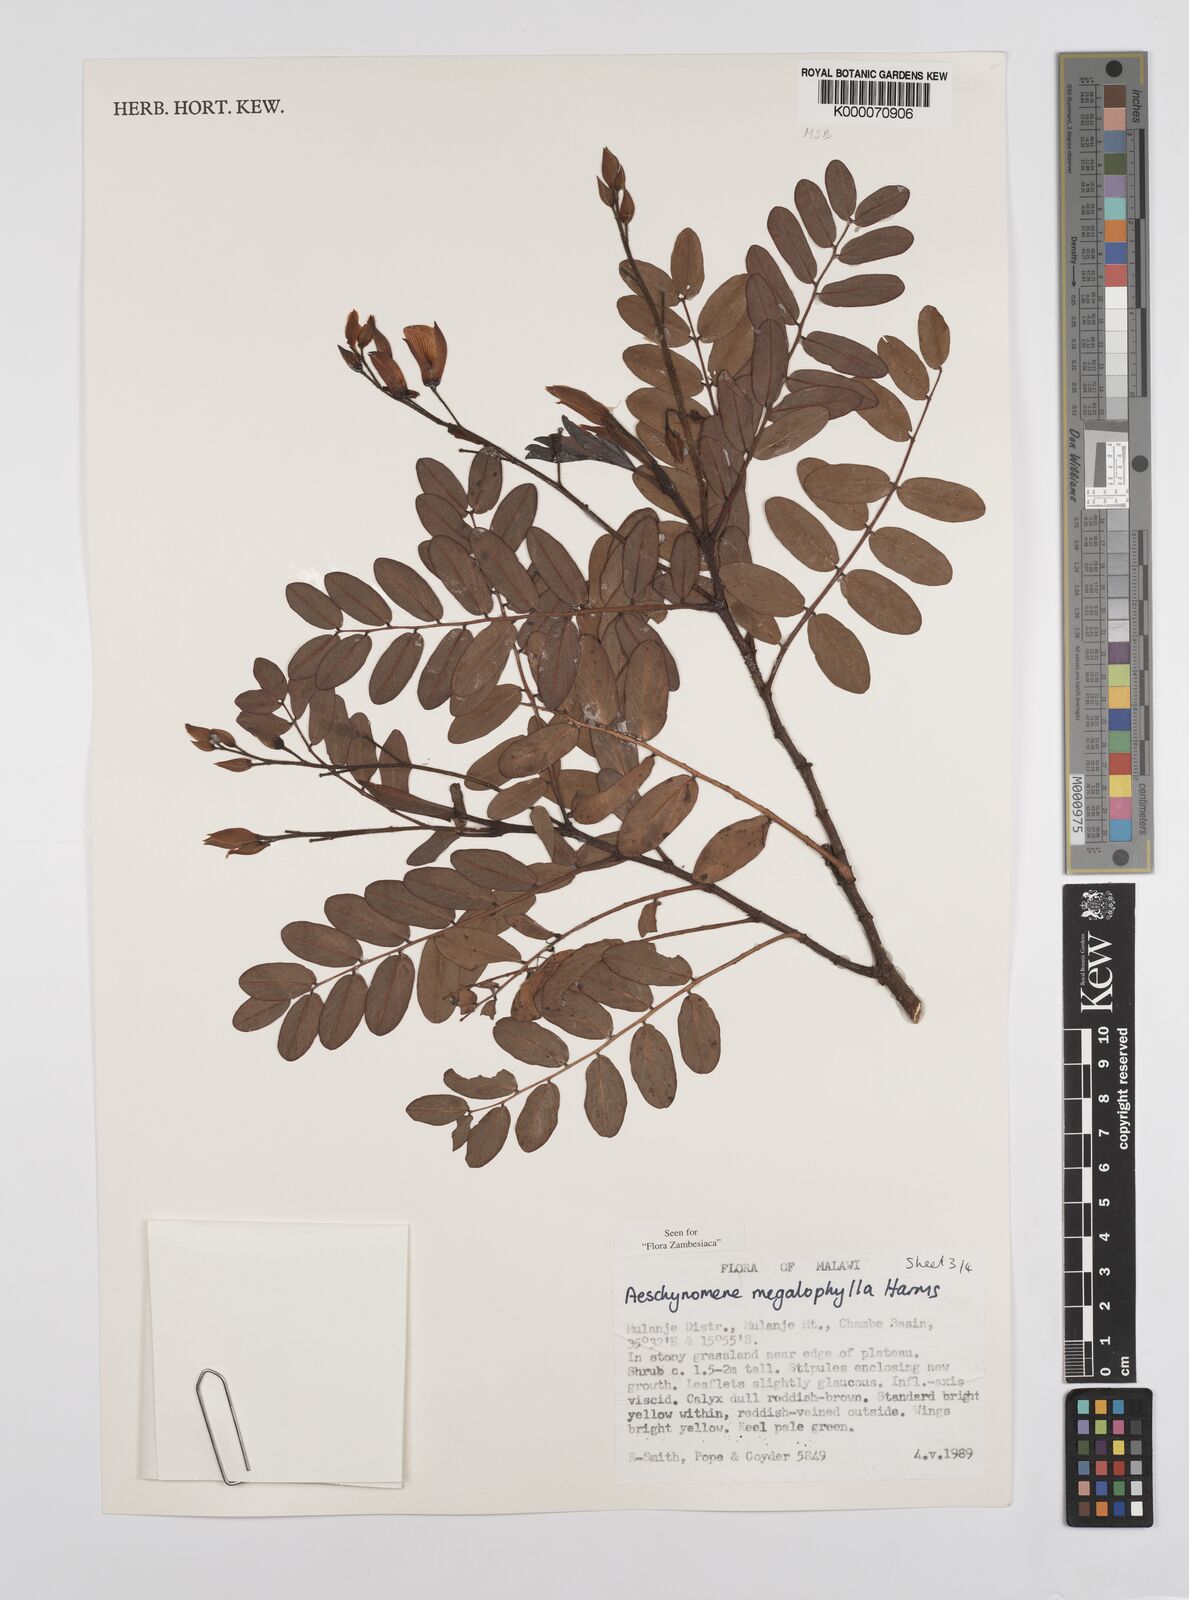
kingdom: Plantae
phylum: Tracheophyta
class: Magnoliopsida
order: Fabales
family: Fabaceae
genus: Aeschynomene
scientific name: Aeschynomene megalophylla
